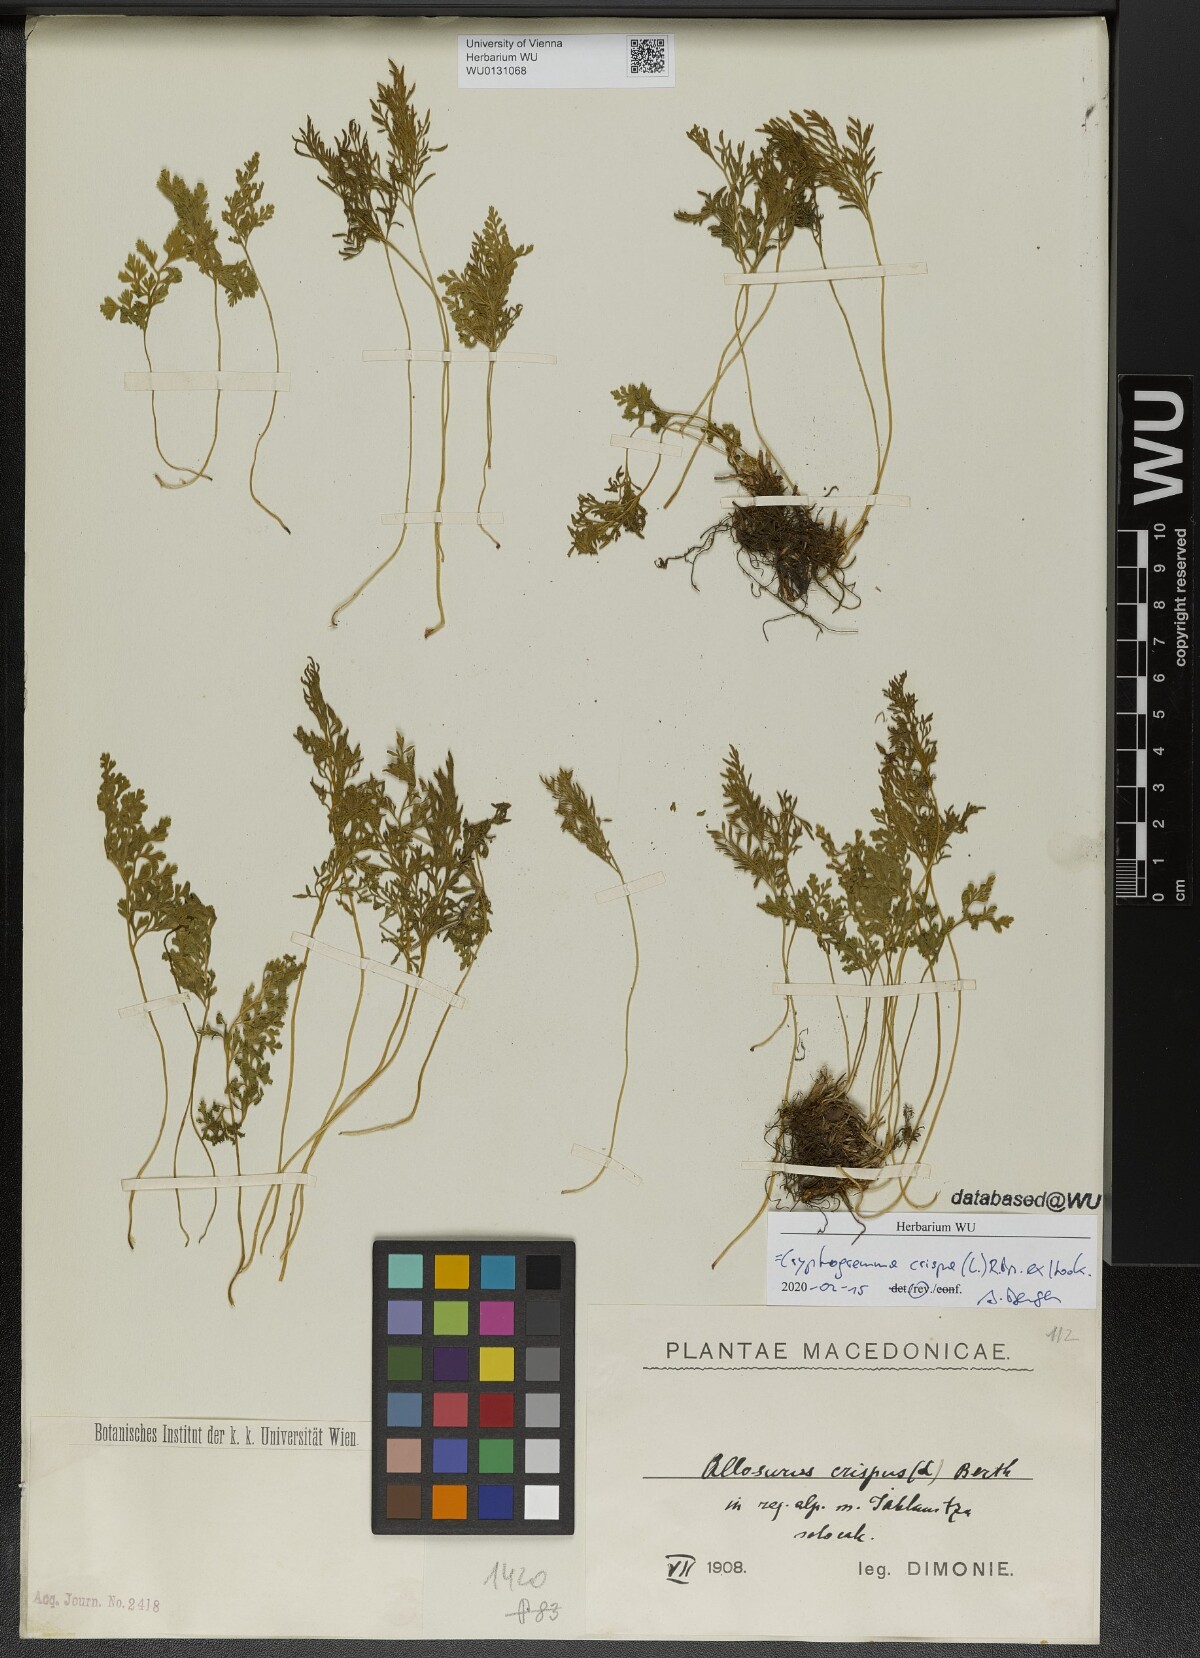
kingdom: Plantae
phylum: Tracheophyta
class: Polypodiopsida
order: Polypodiales
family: Pteridaceae
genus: Cryptogramma
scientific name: Cryptogramma crispa
